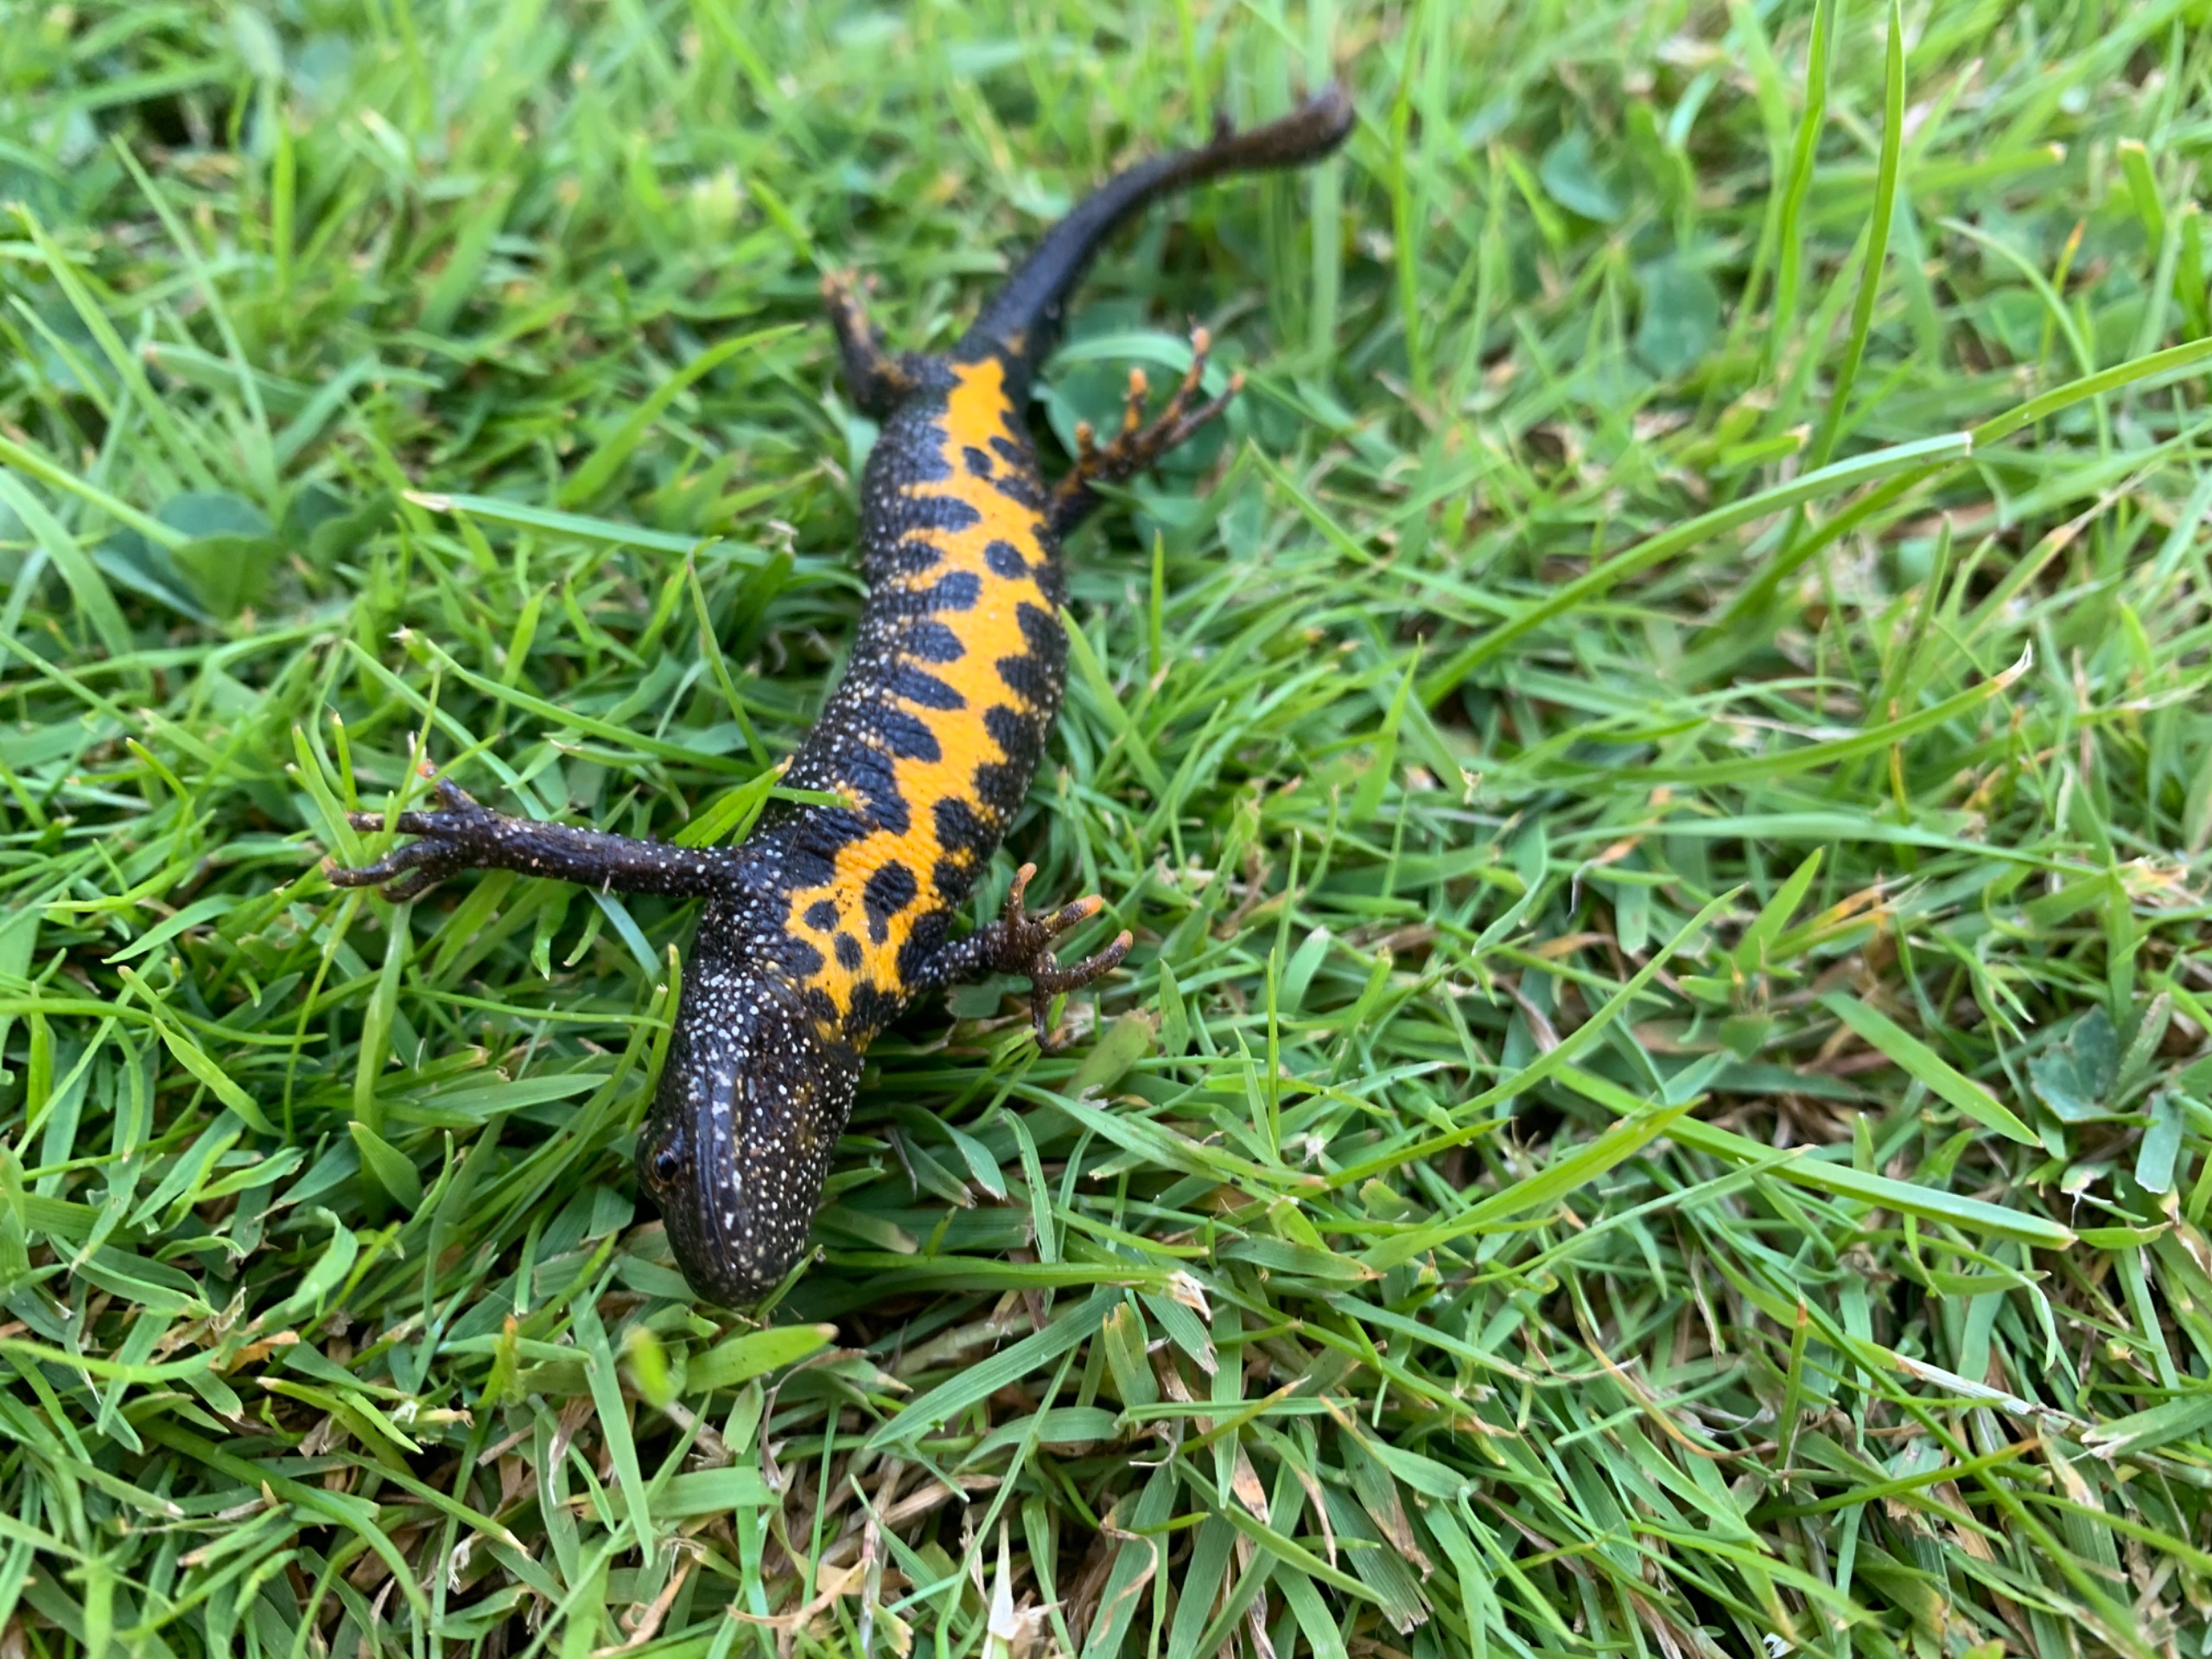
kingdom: Animalia
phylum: Chordata
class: Amphibia
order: Caudata
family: Salamandridae
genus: Triturus
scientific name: Triturus cristatus
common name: Stor vandsalamander
